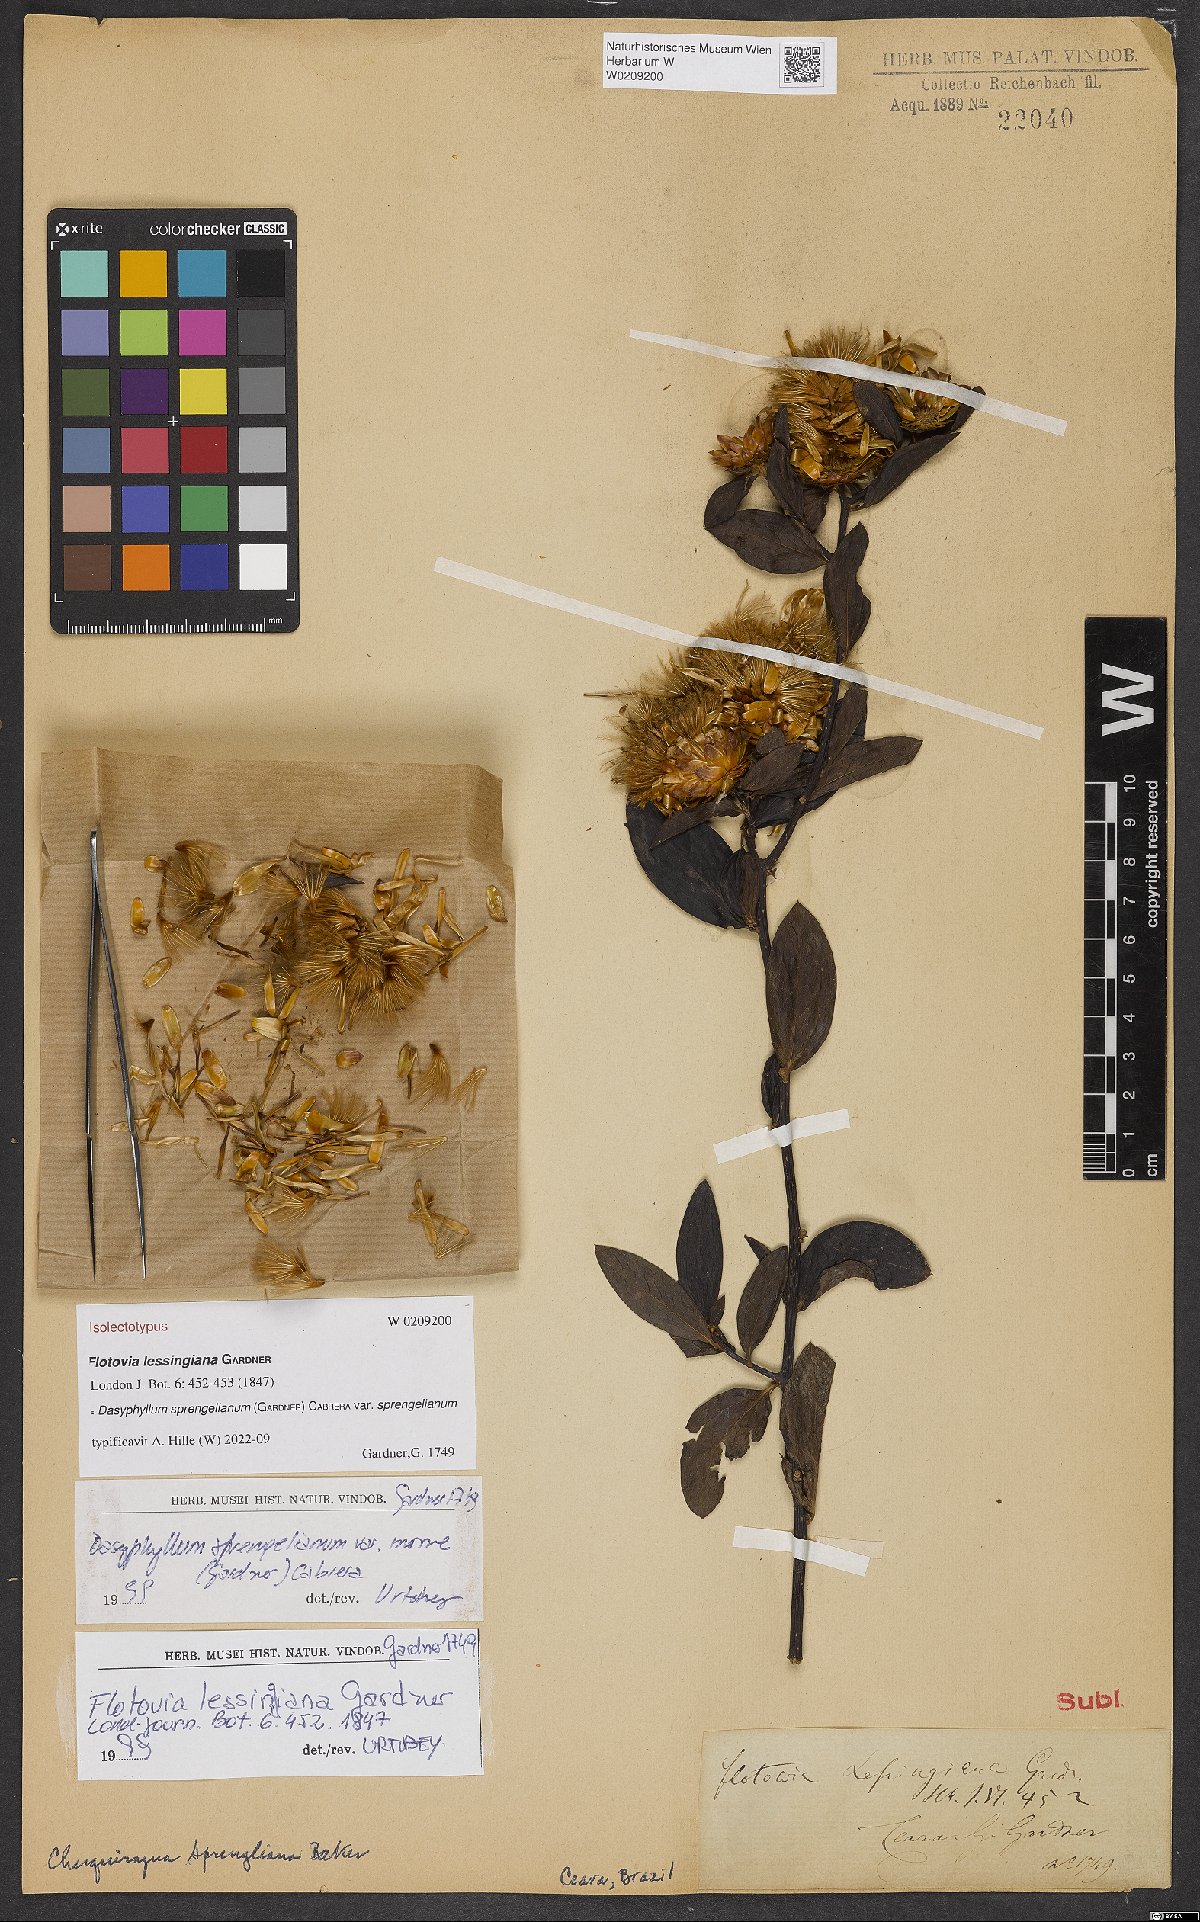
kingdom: Plantae
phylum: Tracheophyta
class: Magnoliopsida
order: Asterales
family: Asteraceae
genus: Dasyphyllum
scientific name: Dasyphyllum sprengelianum
